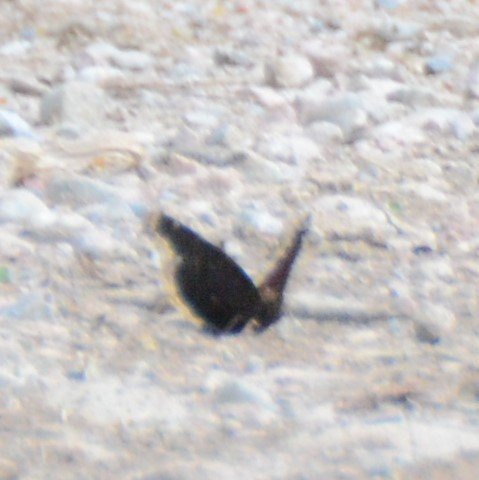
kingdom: Animalia
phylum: Arthropoda
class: Insecta
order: Lepidoptera
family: Nymphalidae
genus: Nymphalis
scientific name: Nymphalis antiopa
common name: Mourning Cloak
